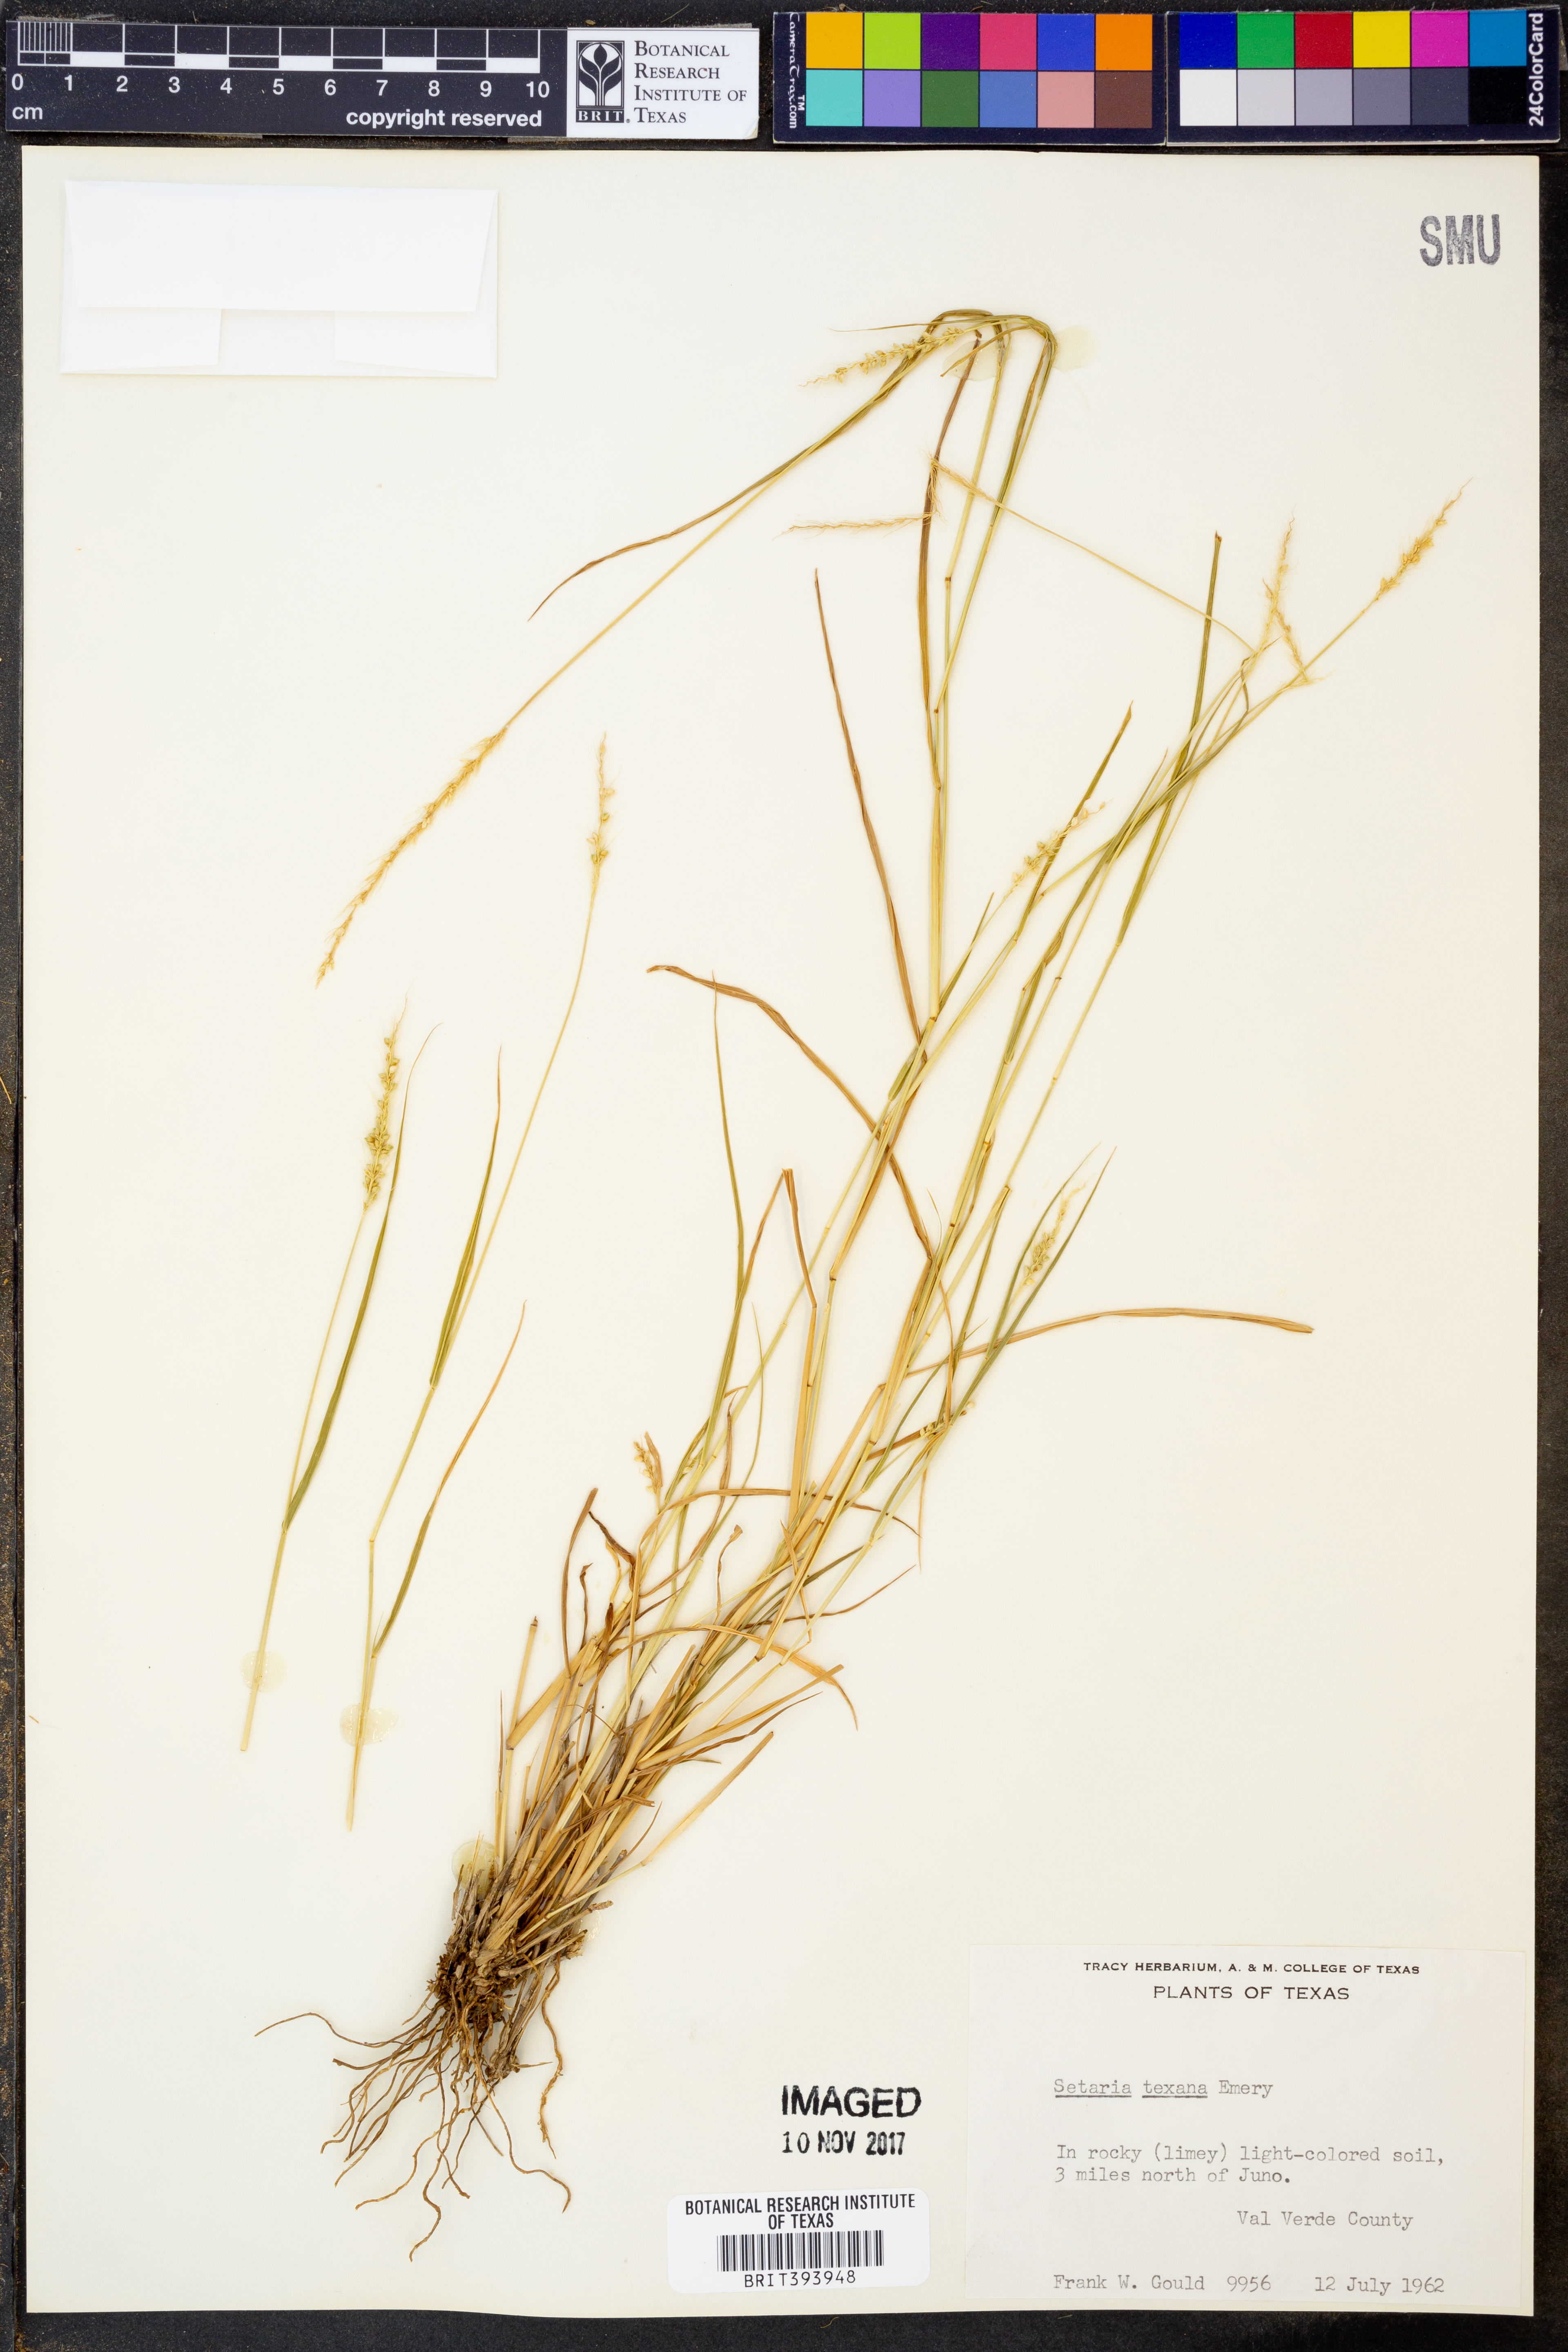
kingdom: Plantae
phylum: Tracheophyta
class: Liliopsida
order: Poales
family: Poaceae
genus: Setaria
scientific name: Setaria texana
